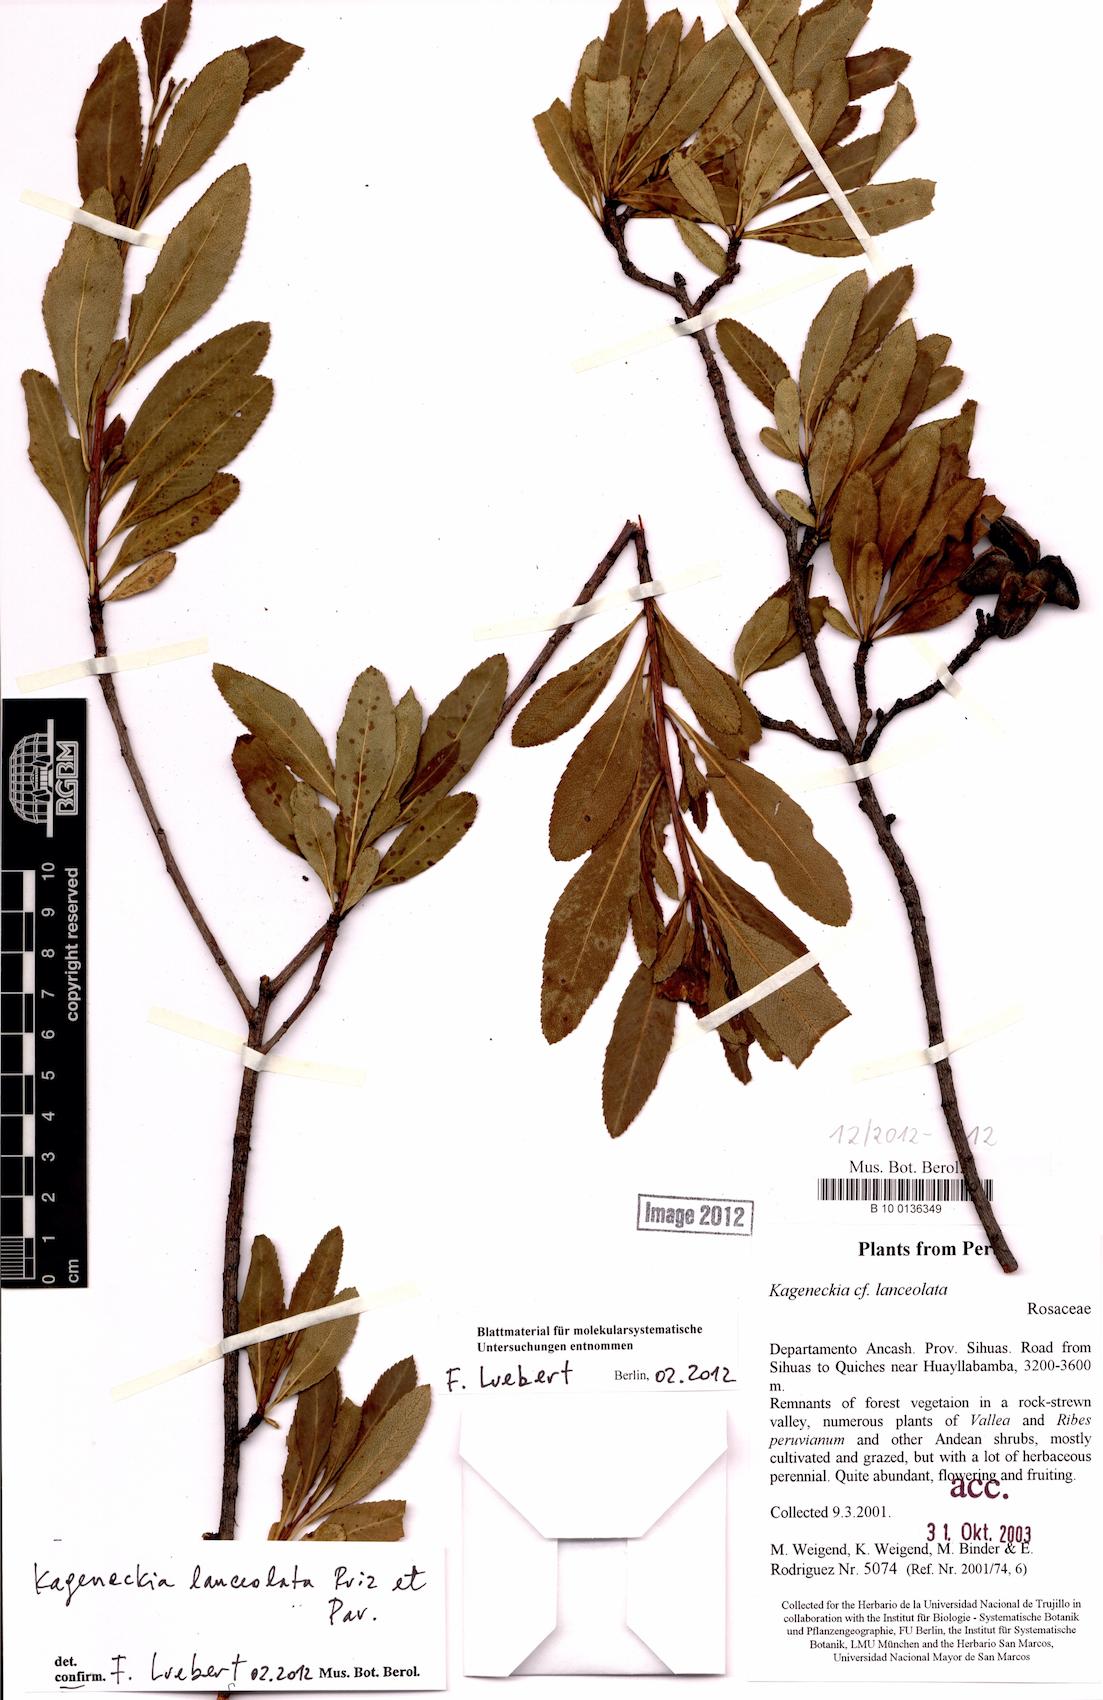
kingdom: Plantae
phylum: Tracheophyta
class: Magnoliopsida
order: Rosales
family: Rosaceae
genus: Kageneckia
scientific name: Kageneckia lanceolata
